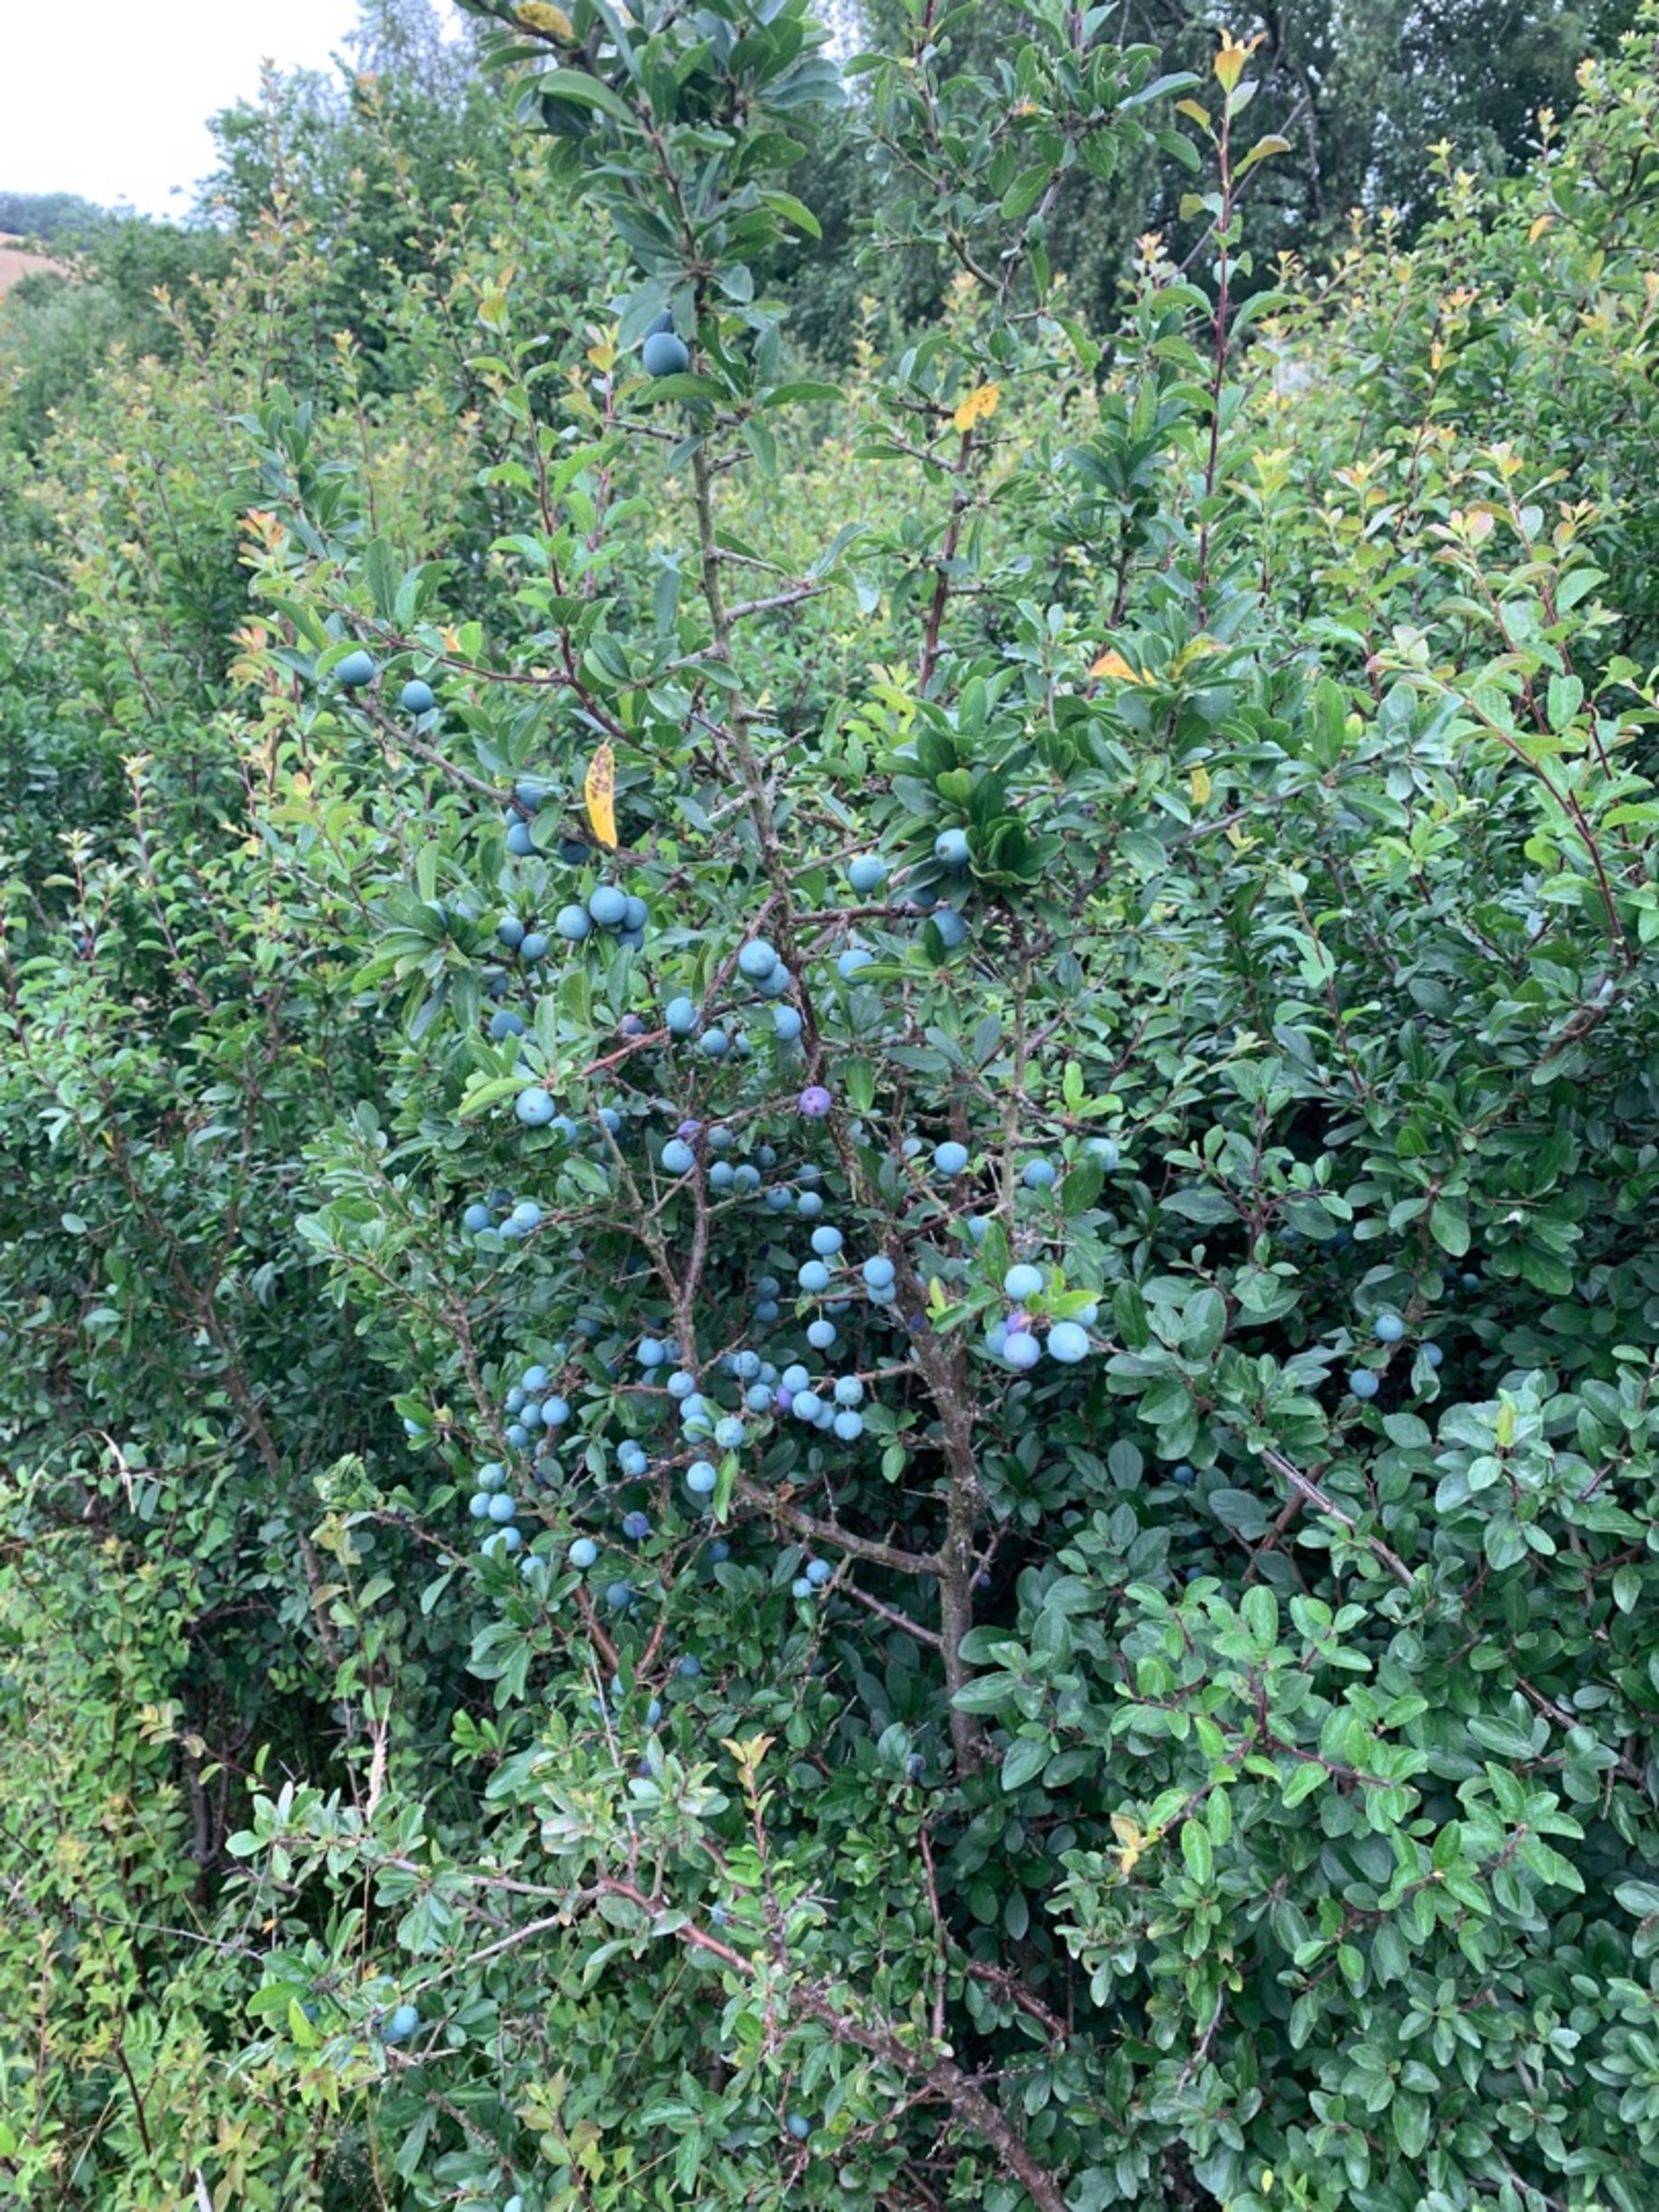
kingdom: Plantae
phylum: Tracheophyta
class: Magnoliopsida
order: Rosales
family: Rosaceae
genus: Prunus
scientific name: Prunus spinosa
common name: Slåen
